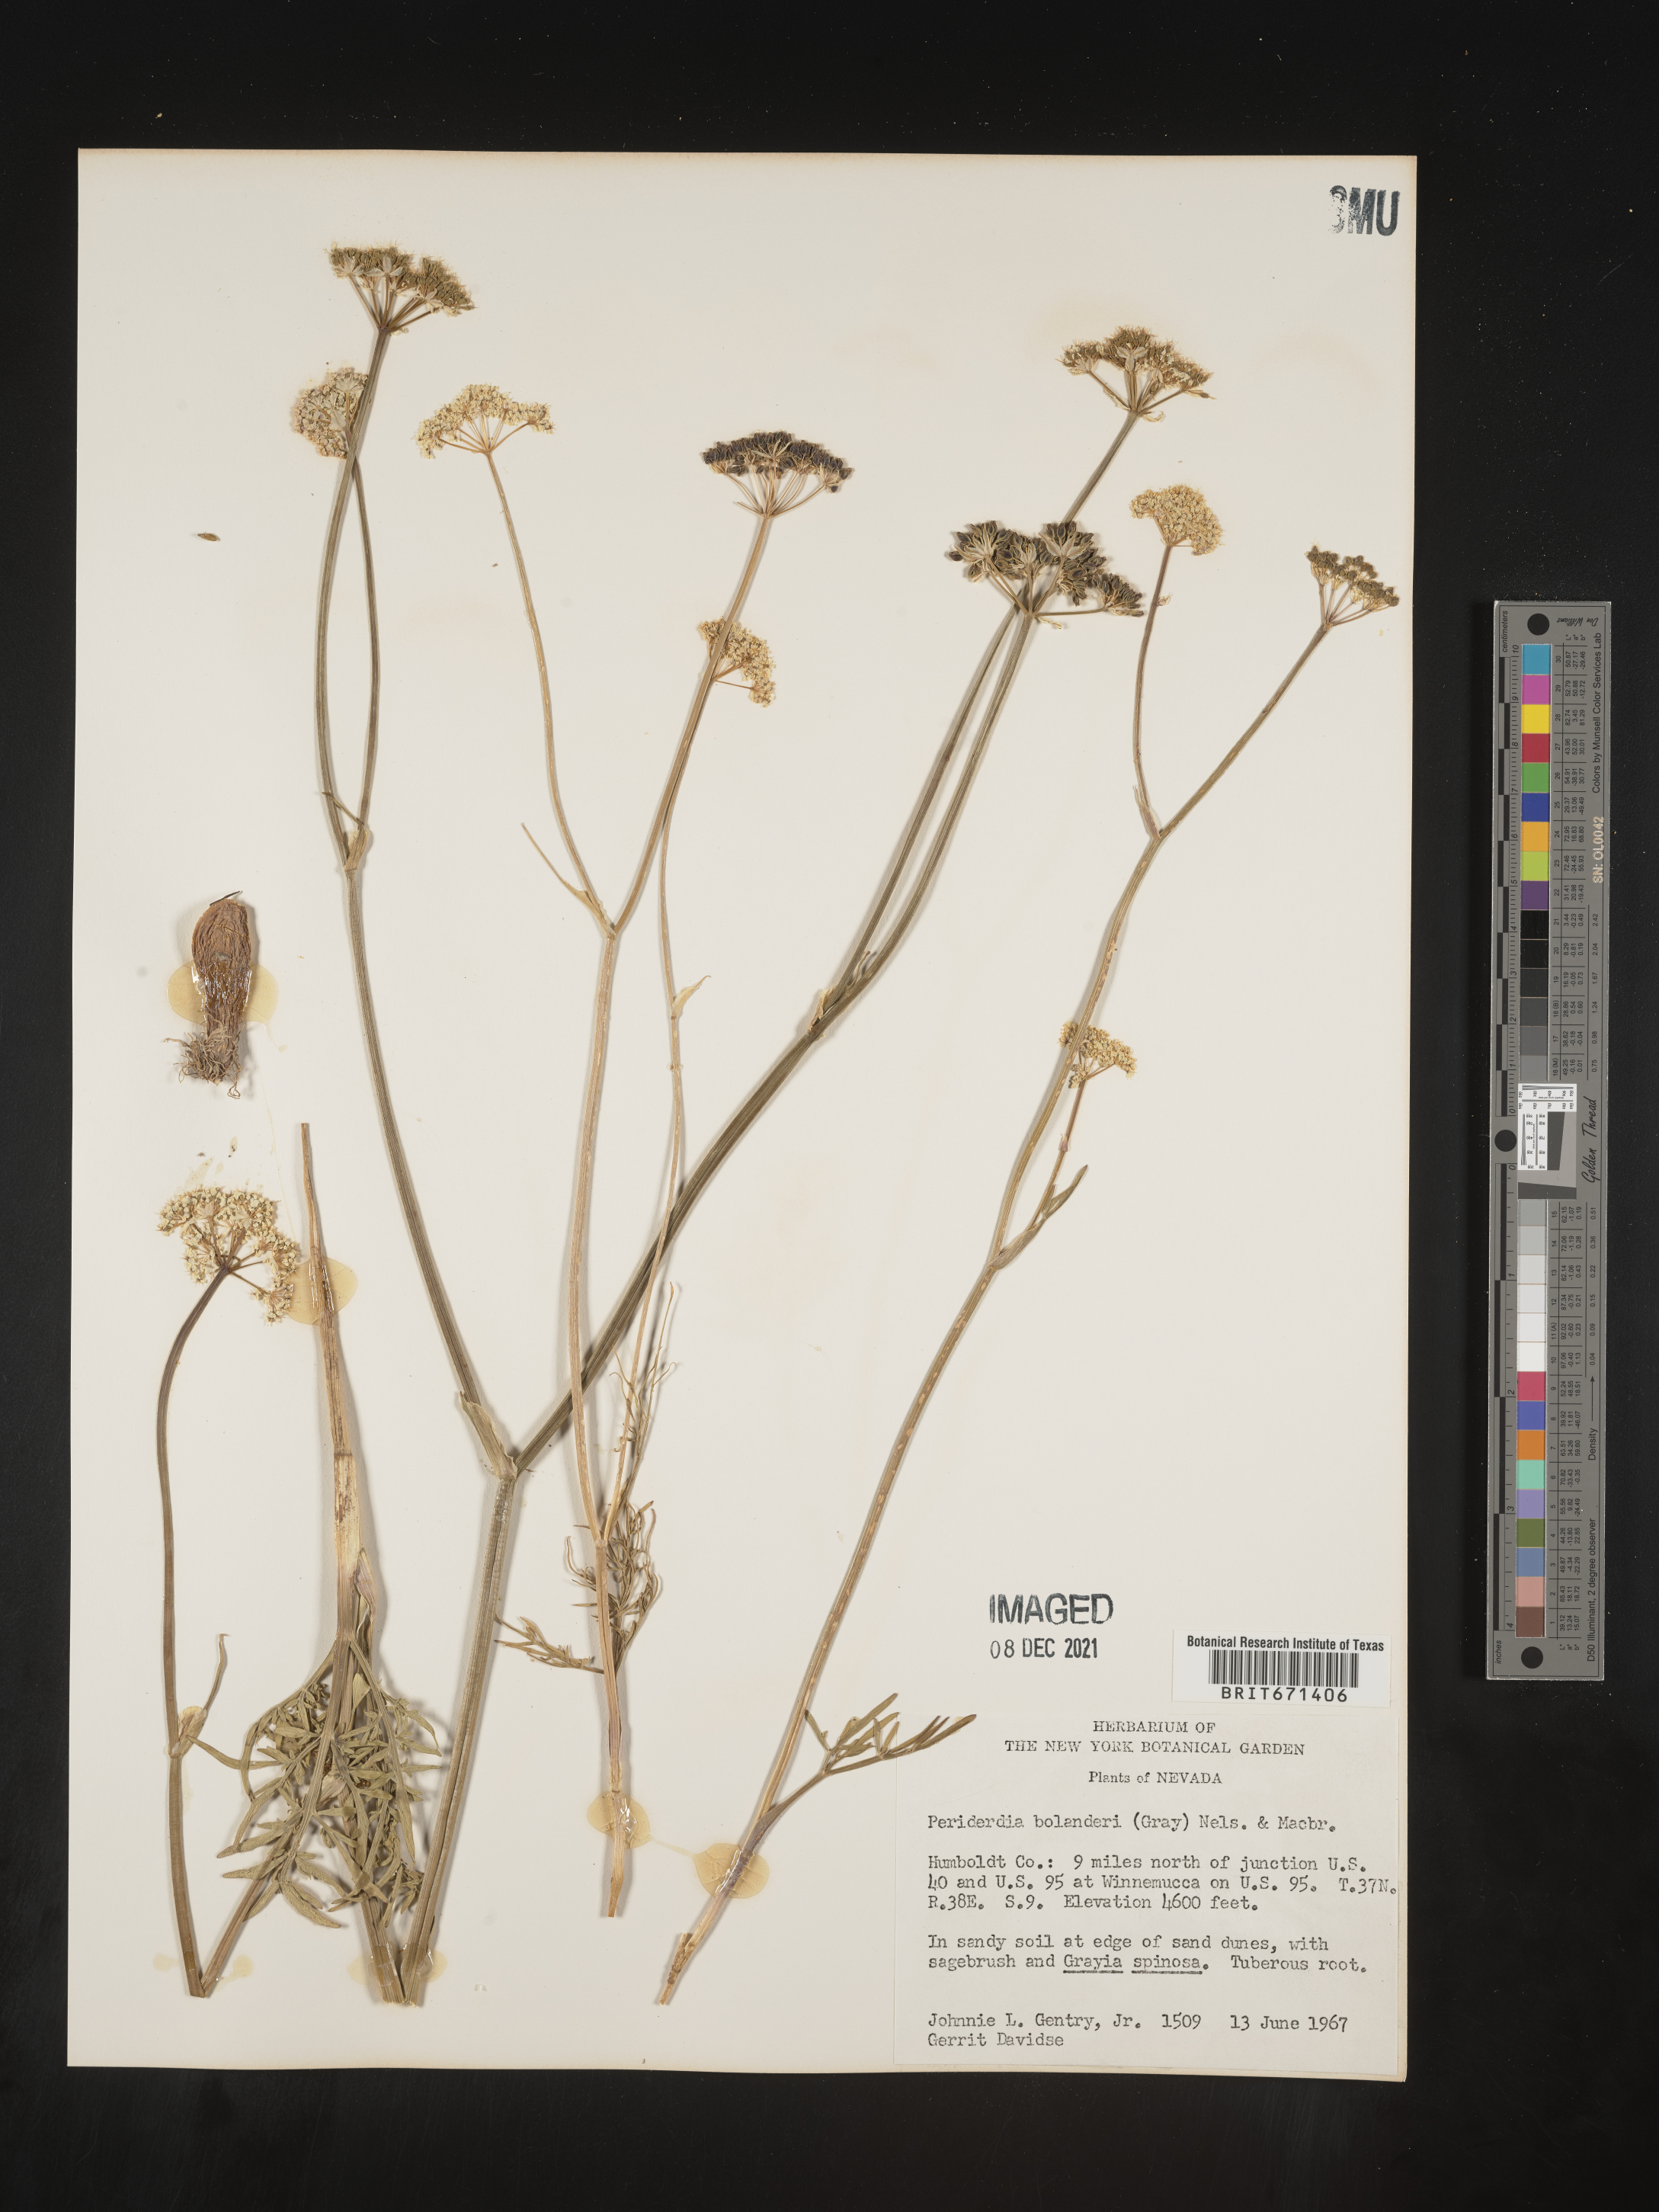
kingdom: Plantae
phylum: Tracheophyta
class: Magnoliopsida
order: Apiales
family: Apiaceae
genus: Perideridia
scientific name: Perideridia bolanderi
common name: Olasi
